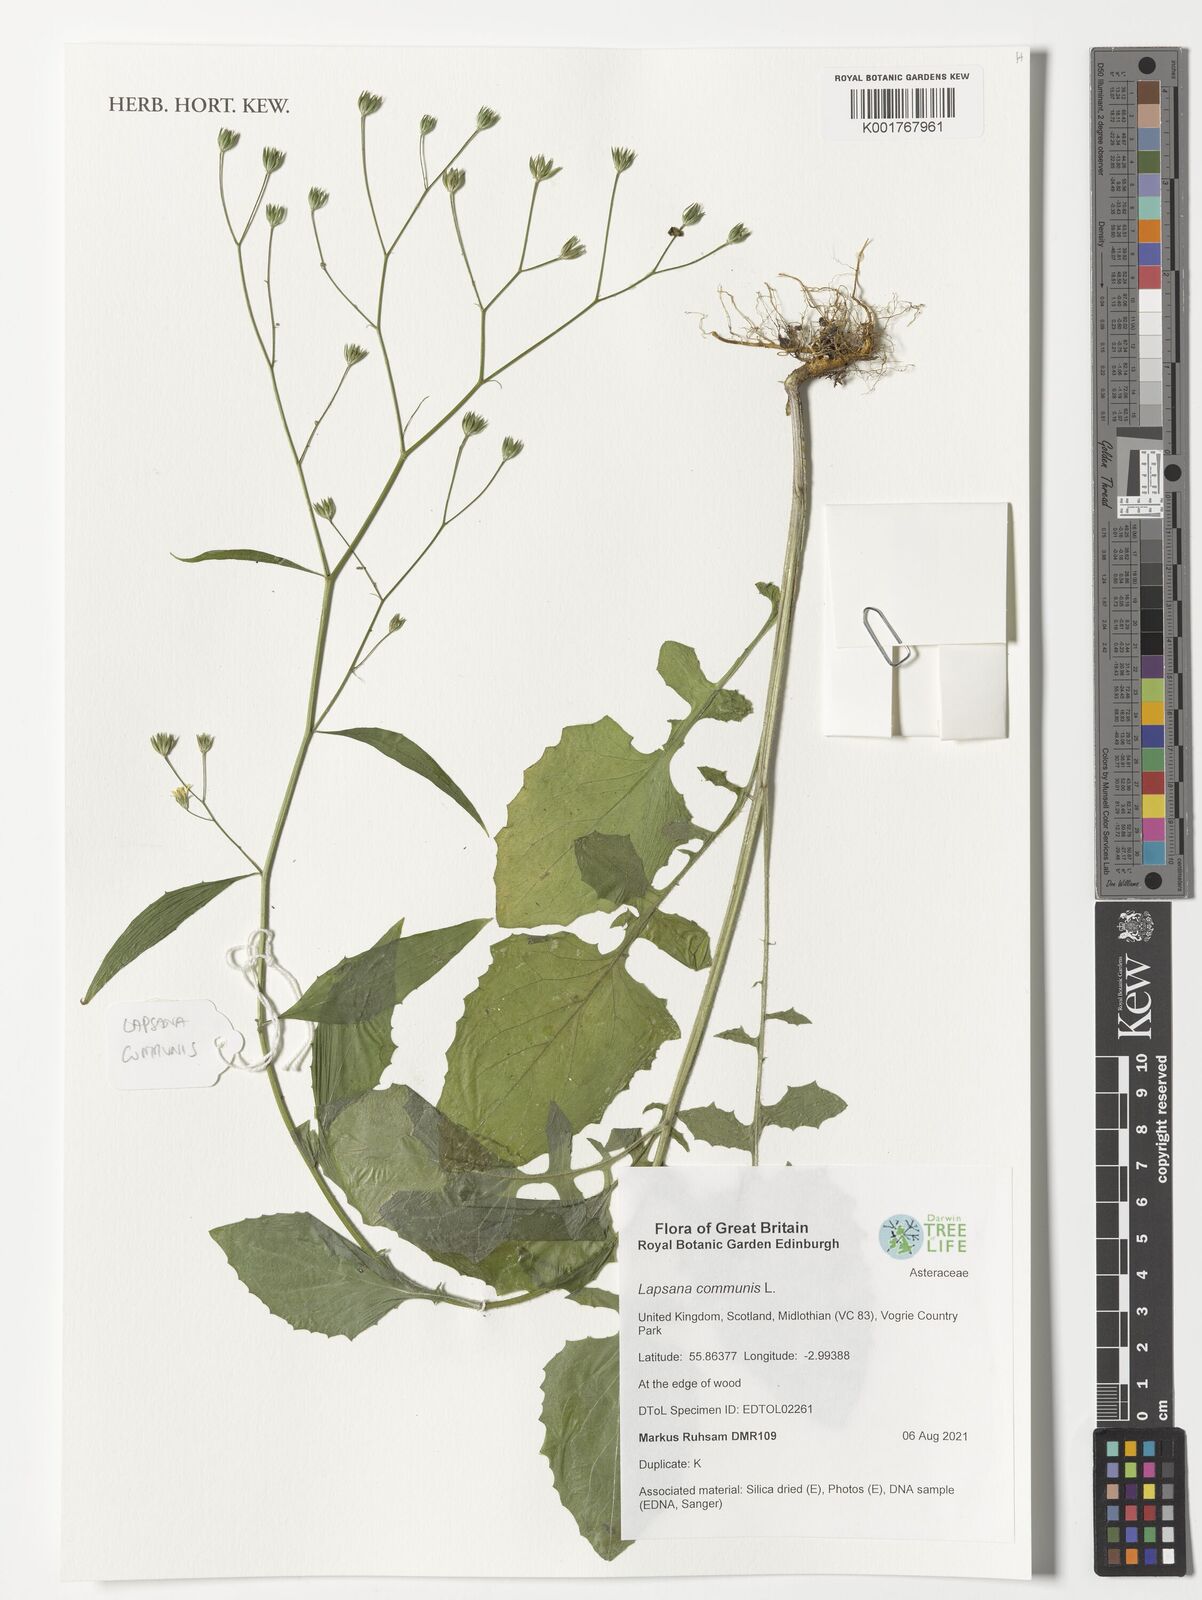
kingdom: Plantae
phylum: Tracheophyta
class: Magnoliopsida
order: Asterales
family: Asteraceae
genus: Lapsana
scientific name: Lapsana communis
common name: Nipplewort
